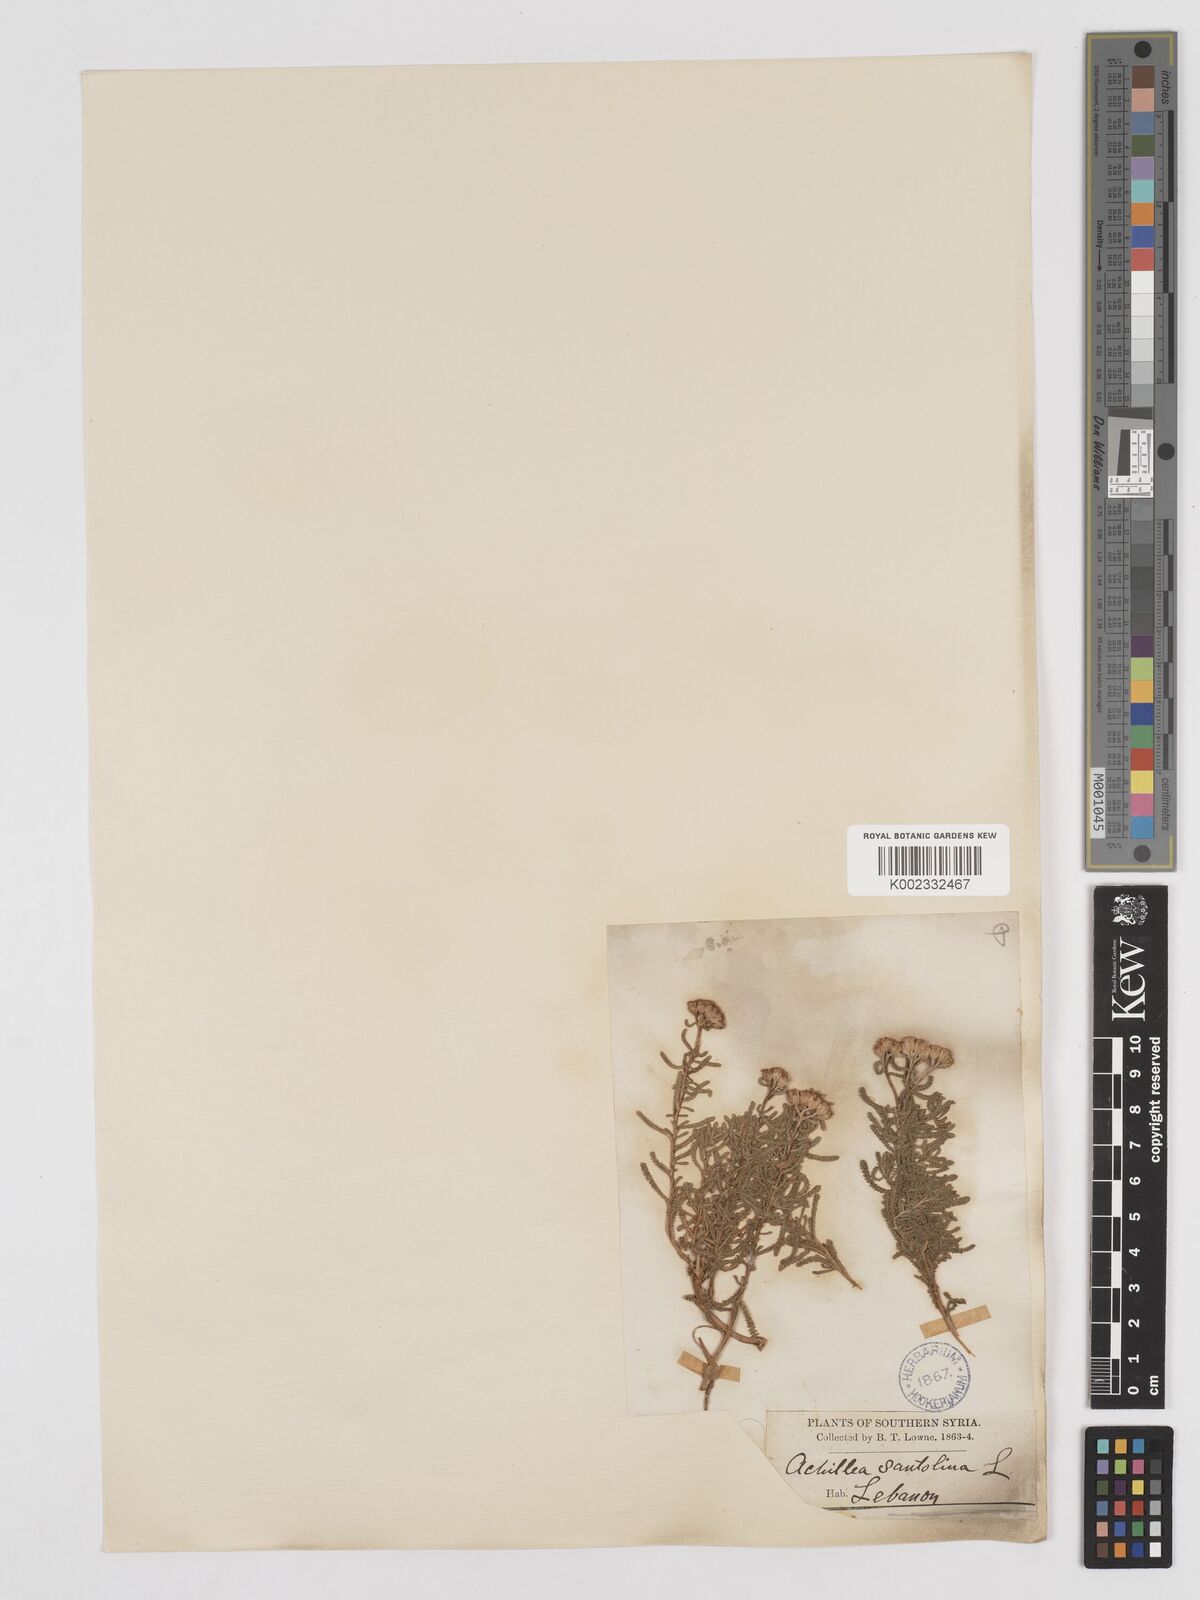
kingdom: Plantae
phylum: Tracheophyta
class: Magnoliopsida
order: Asterales
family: Asteraceae
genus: Achillea
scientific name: Achillea tenuifolia
